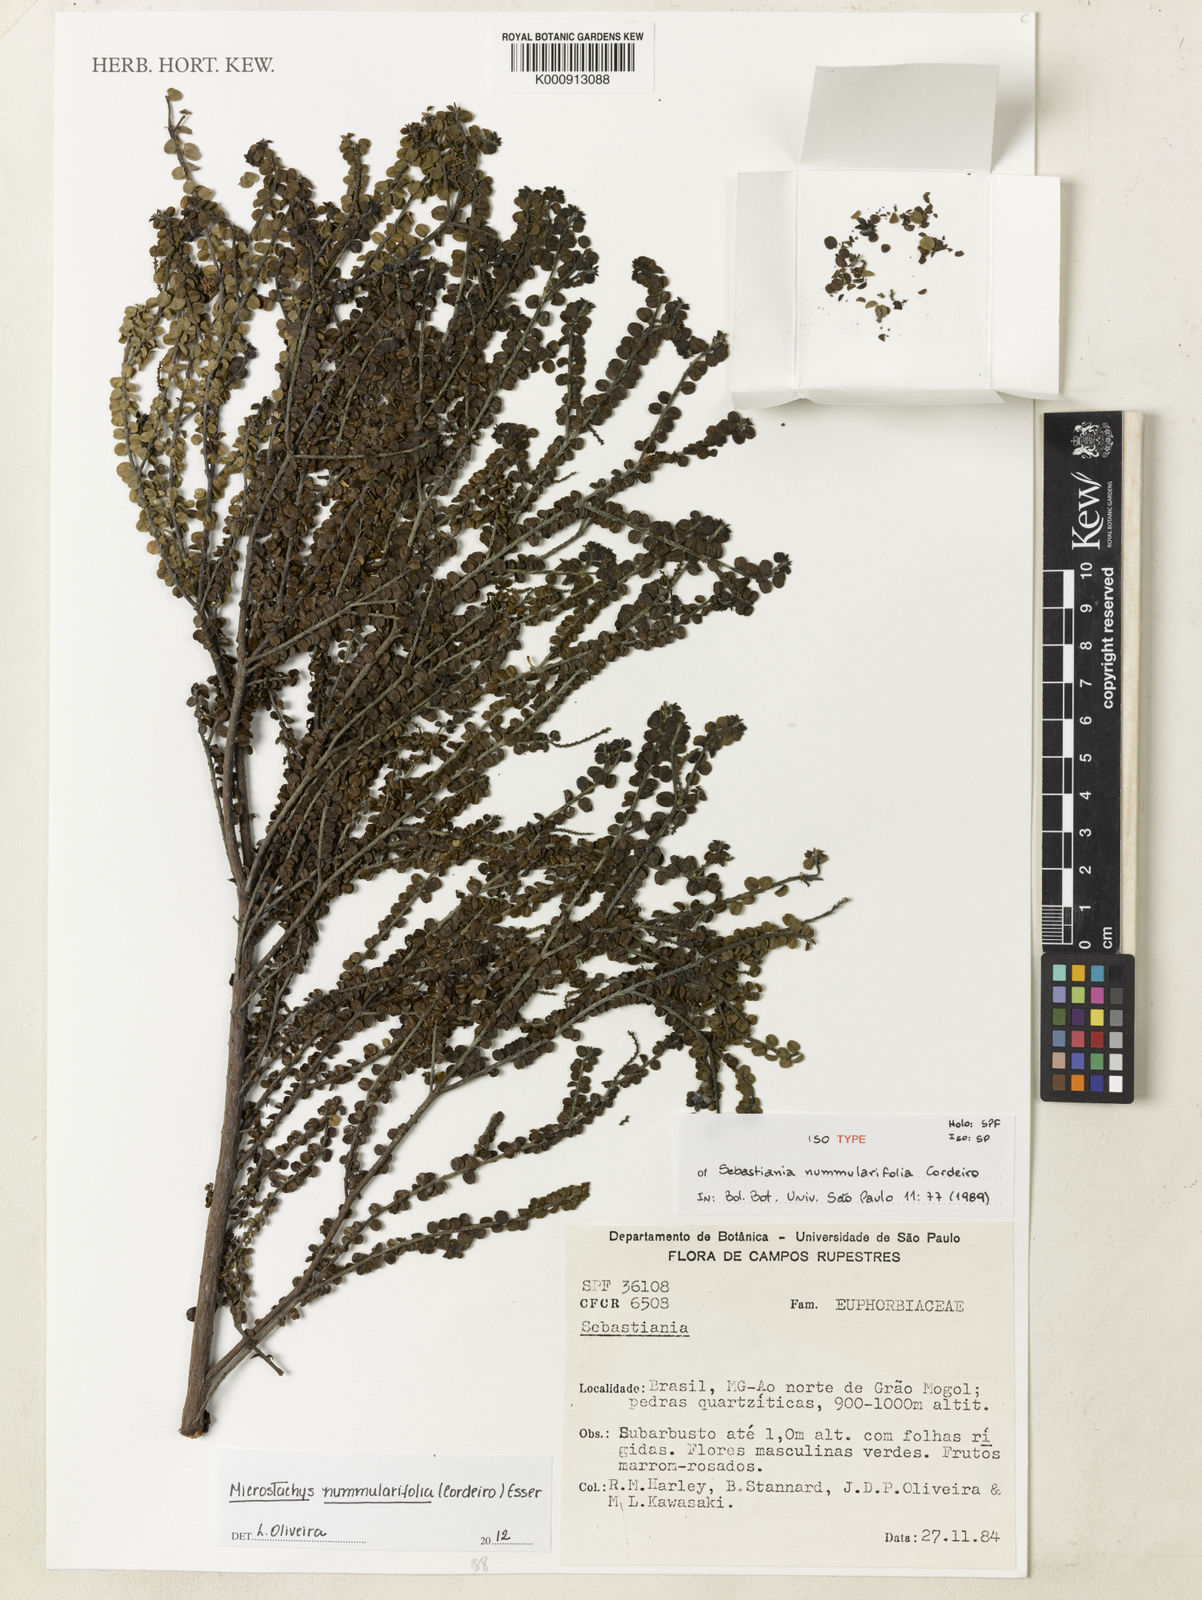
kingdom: Plantae
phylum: Tracheophyta
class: Magnoliopsida
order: Malpighiales
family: Euphorbiaceae
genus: Microstachys
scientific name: Microstachys nummulariifolia
